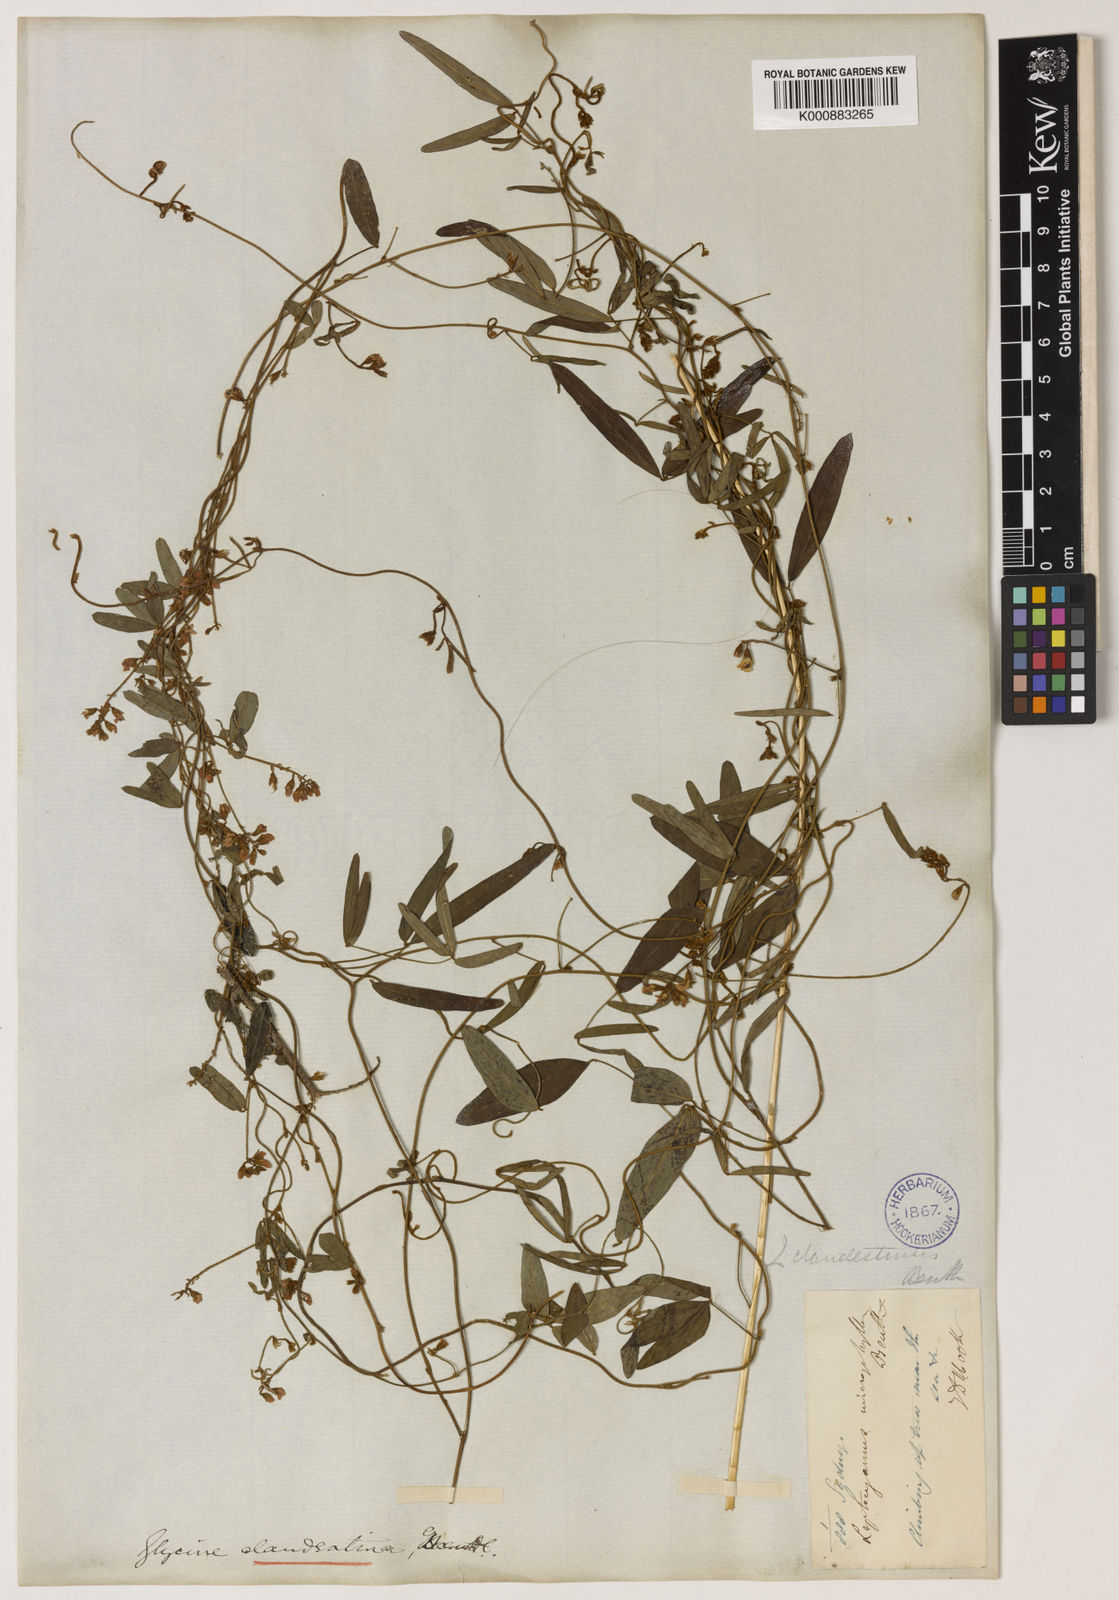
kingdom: Plantae
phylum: Tracheophyta
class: Magnoliopsida
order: Fabales
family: Fabaceae
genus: Glycine
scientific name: Glycine clandestina
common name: Twining glycine
